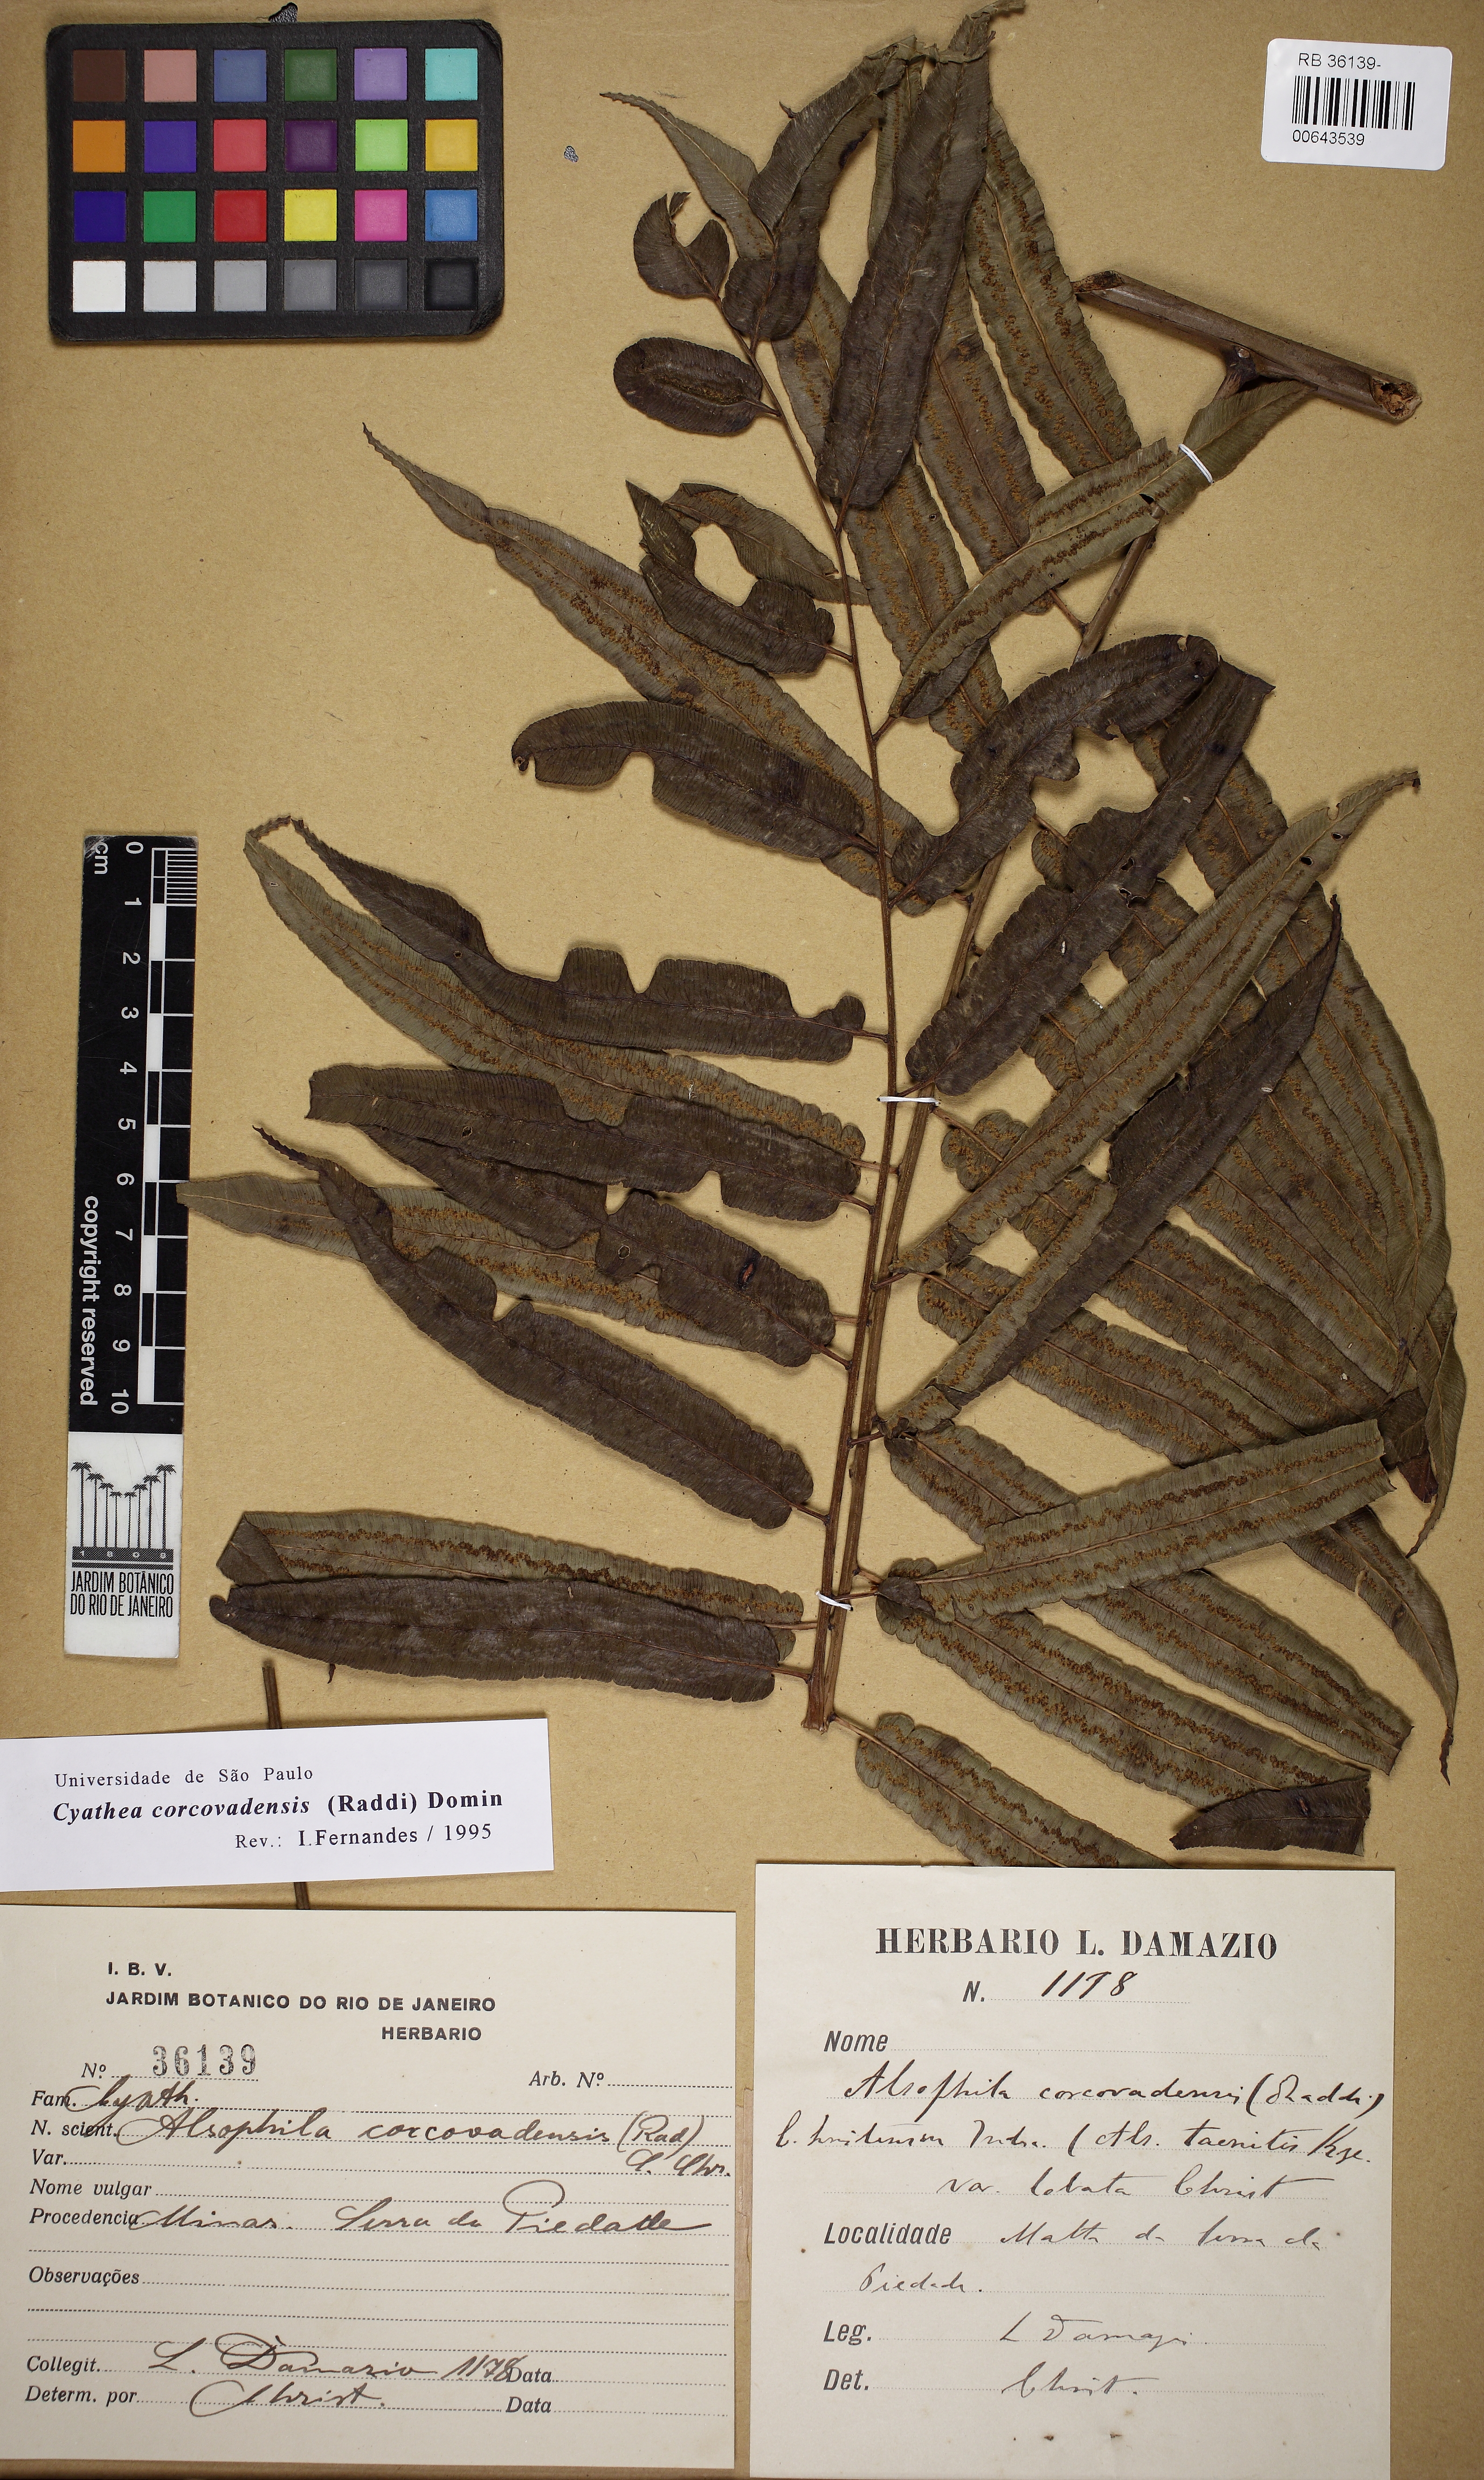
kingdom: Plantae
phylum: Tracheophyta
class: Polypodiopsida
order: Cyatheales
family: Cyatheaceae
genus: Cyathea
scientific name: Cyathea corcovadensis
